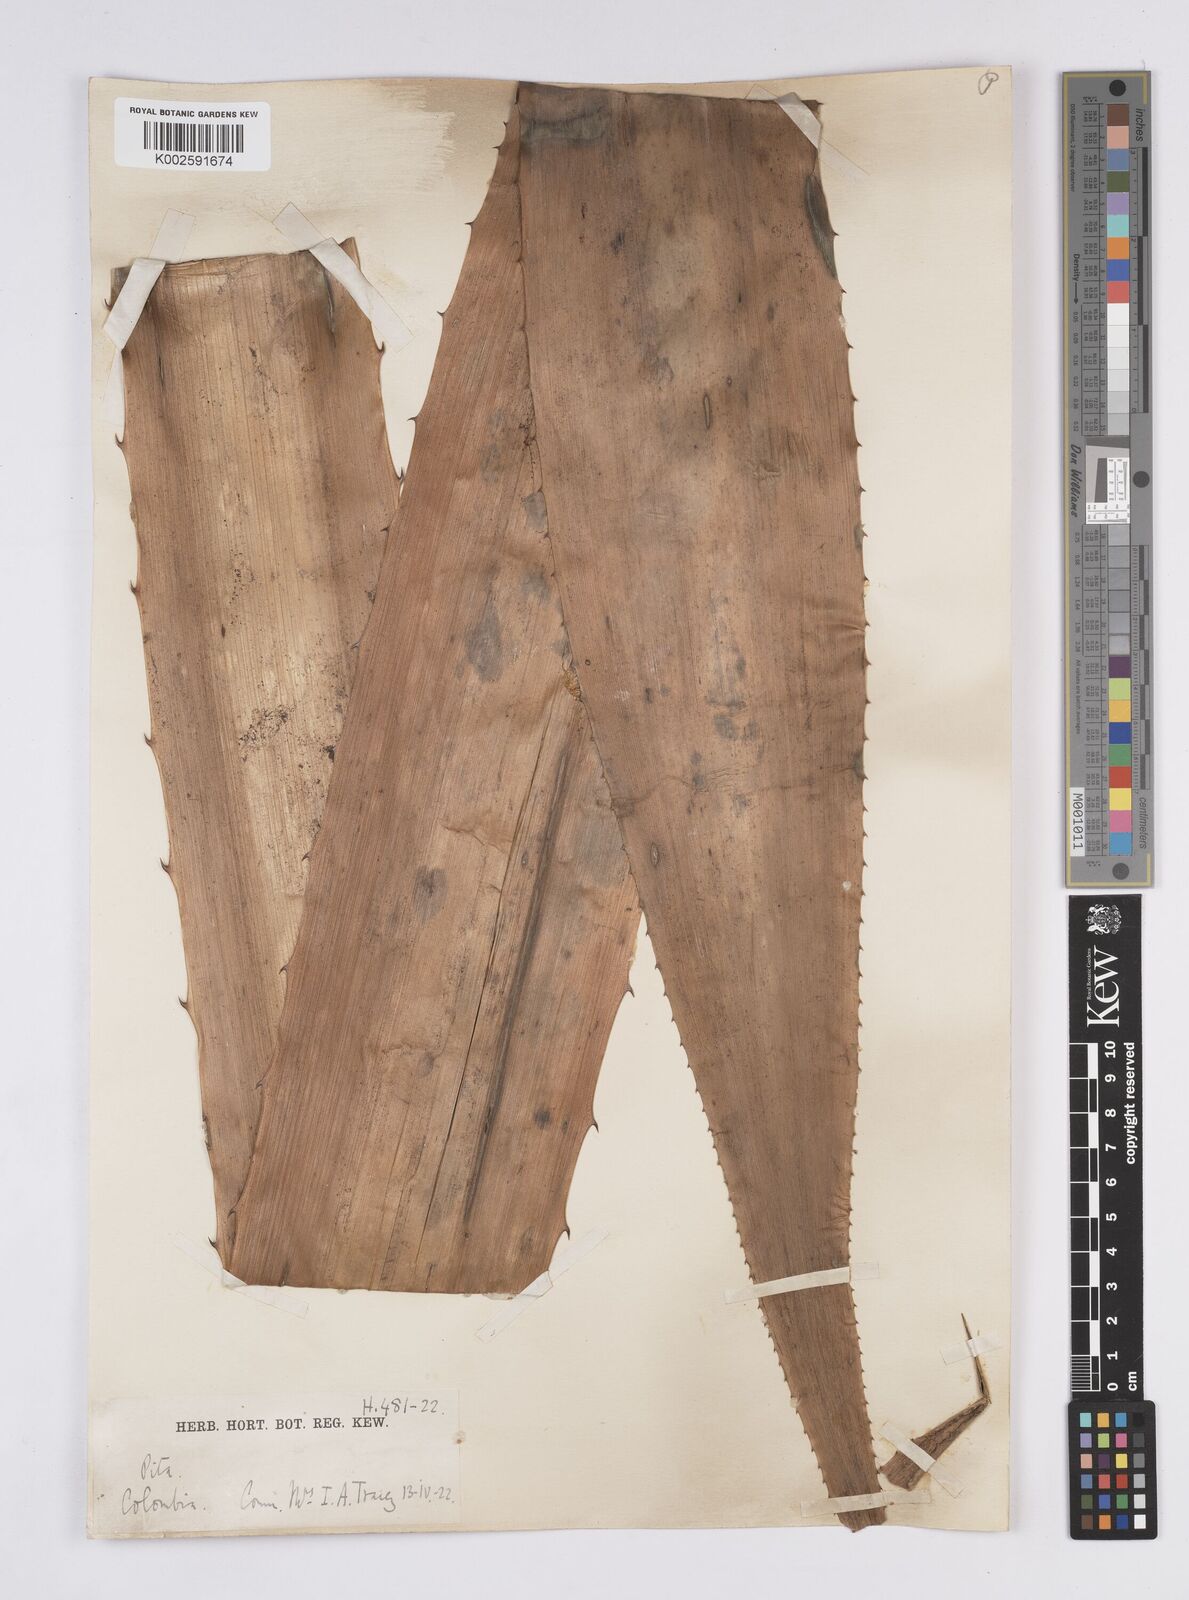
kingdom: Plantae
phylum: Tracheophyta
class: Liliopsida
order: Poales
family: Bromeliaceae
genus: Aechmea
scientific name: Aechmea magdalenae
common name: Arghan
